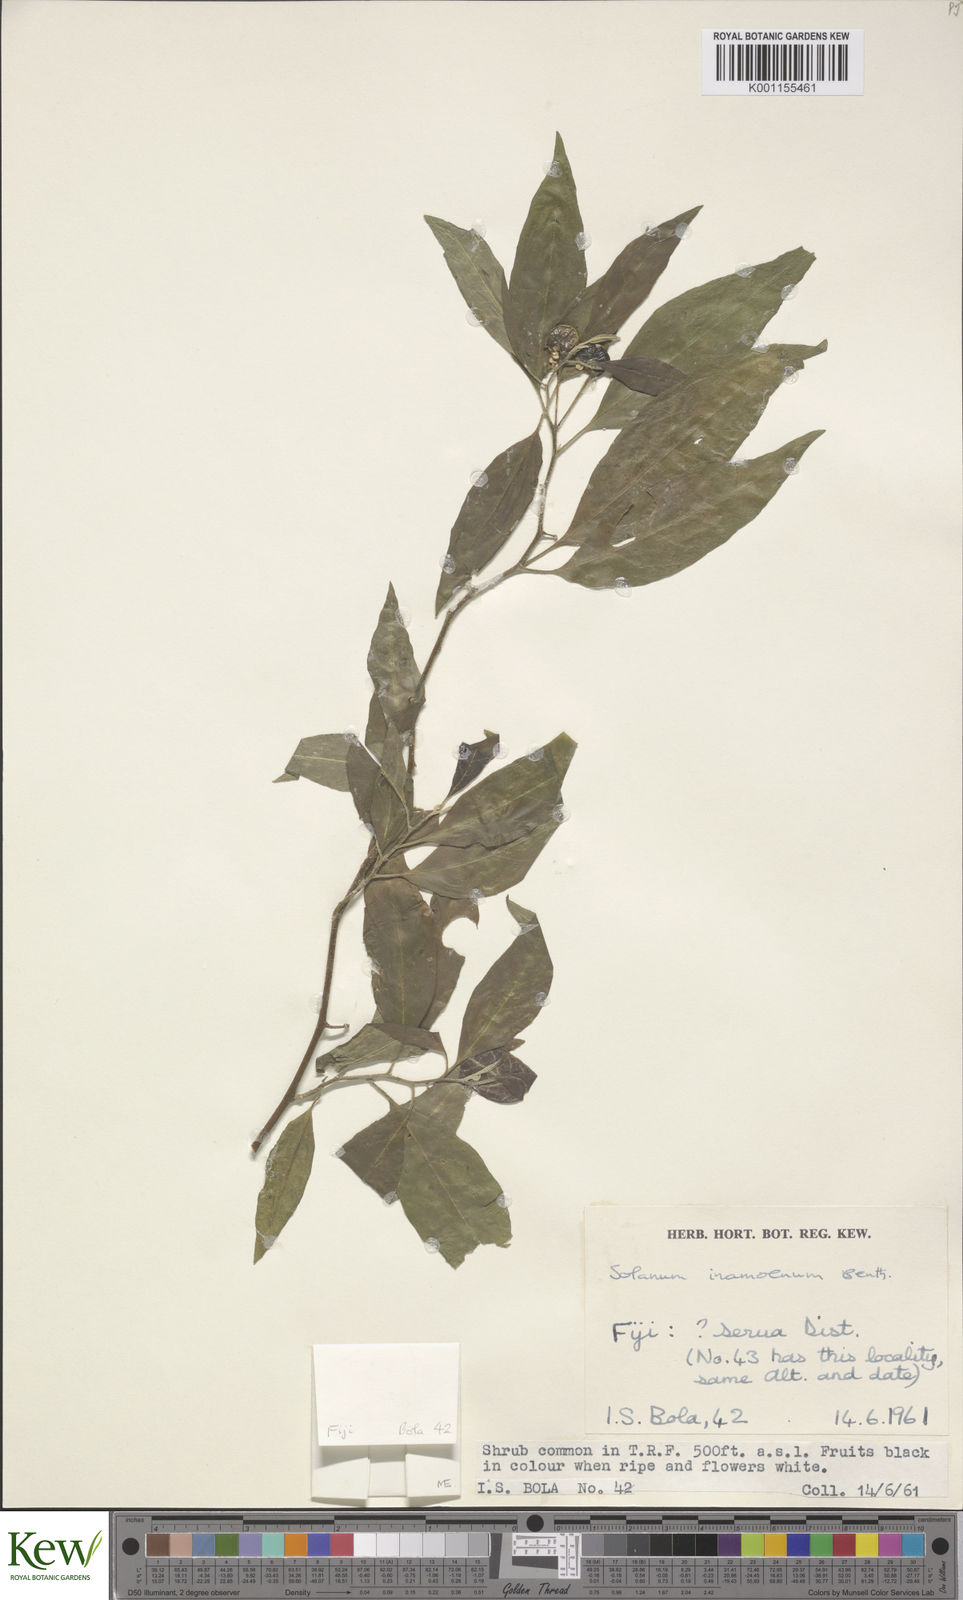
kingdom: Plantae
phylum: Tracheophyta
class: Magnoliopsida
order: Solanales
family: Solanaceae
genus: Solanum
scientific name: Solanum inamoenum
